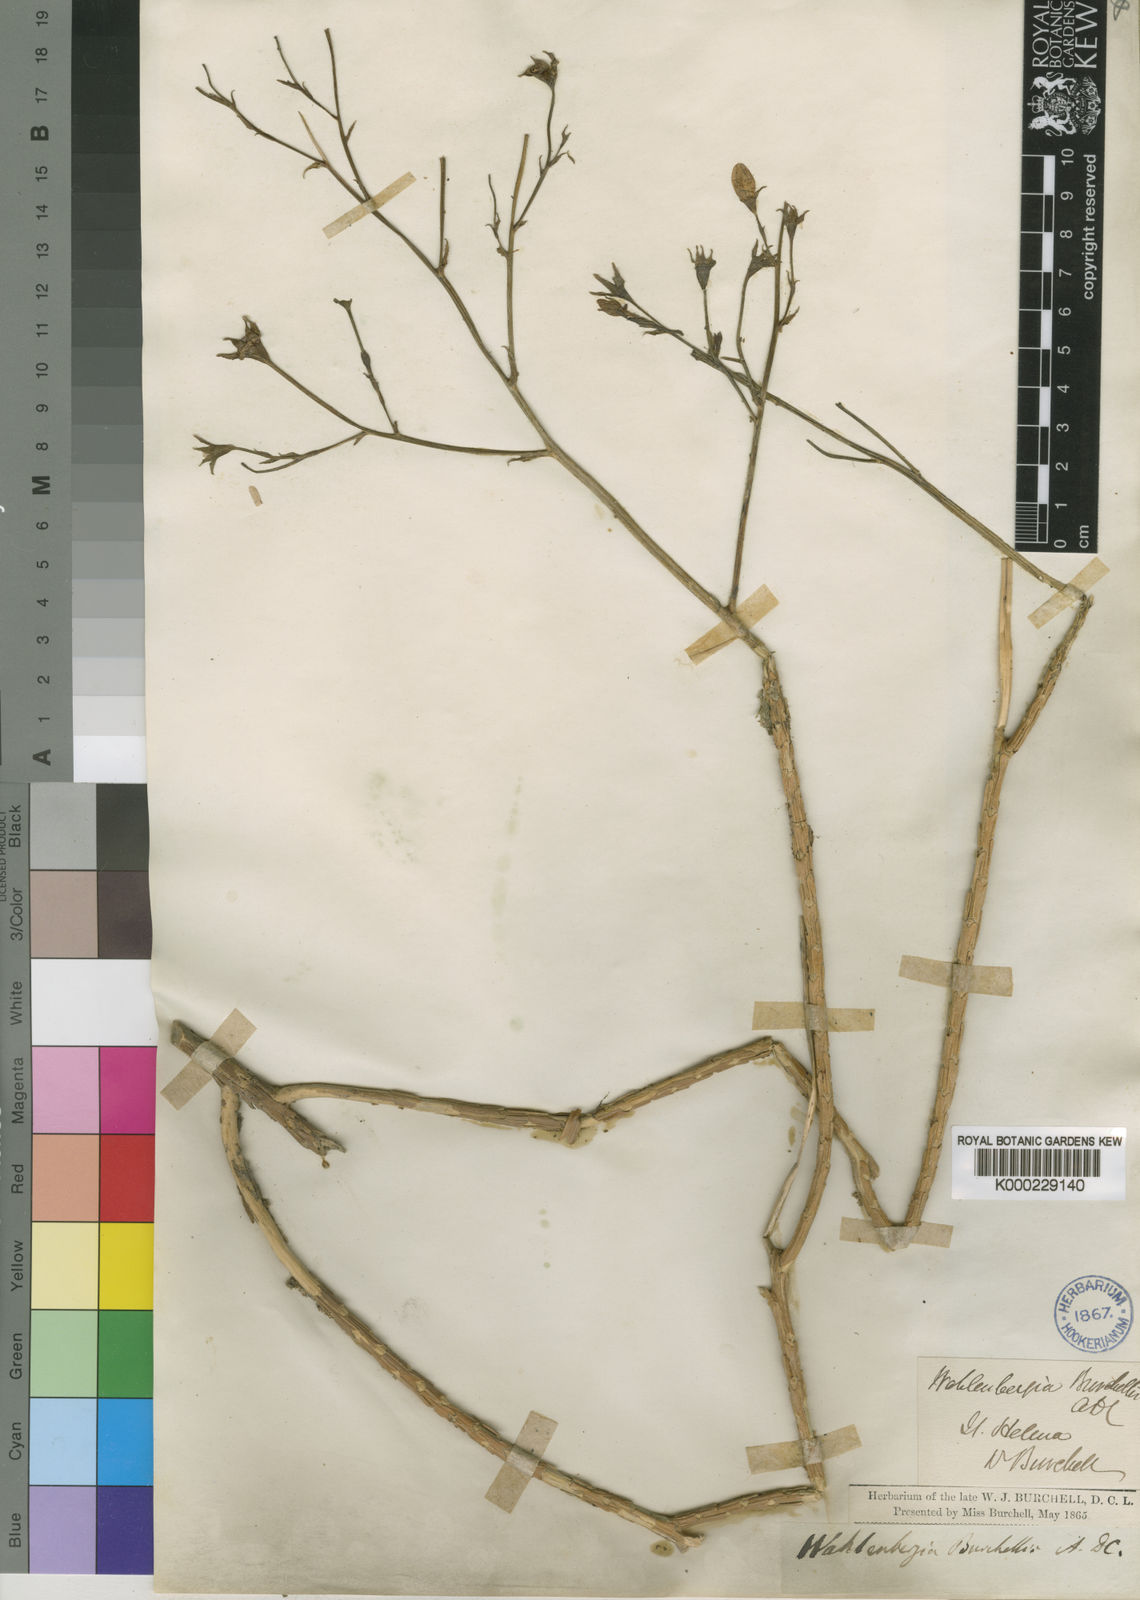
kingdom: Plantae
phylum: Tracheophyta
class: Magnoliopsida
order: Asterales
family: Campanulaceae
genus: Wahlenbergia
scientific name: Wahlenbergia roxburghii
